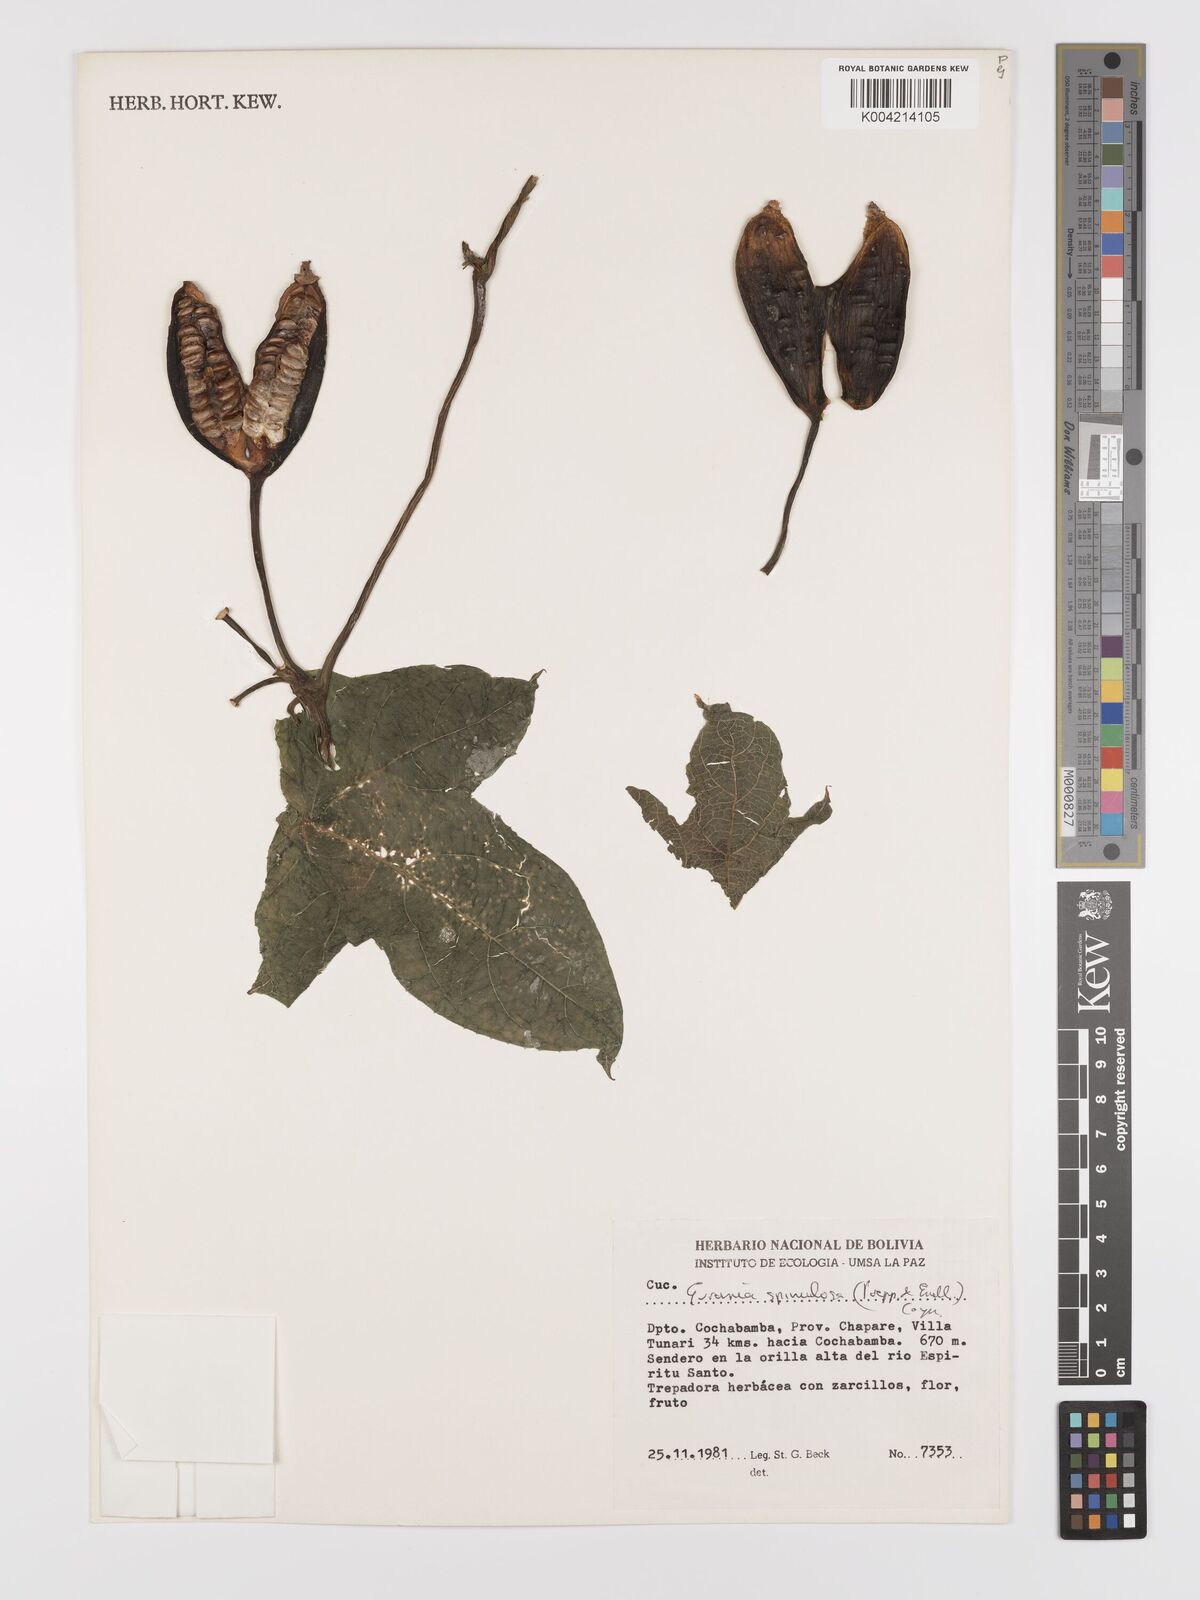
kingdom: Plantae
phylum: Tracheophyta
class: Magnoliopsida
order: Cucurbitales
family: Cucurbitaceae
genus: Gurania
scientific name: Gurania lobata
